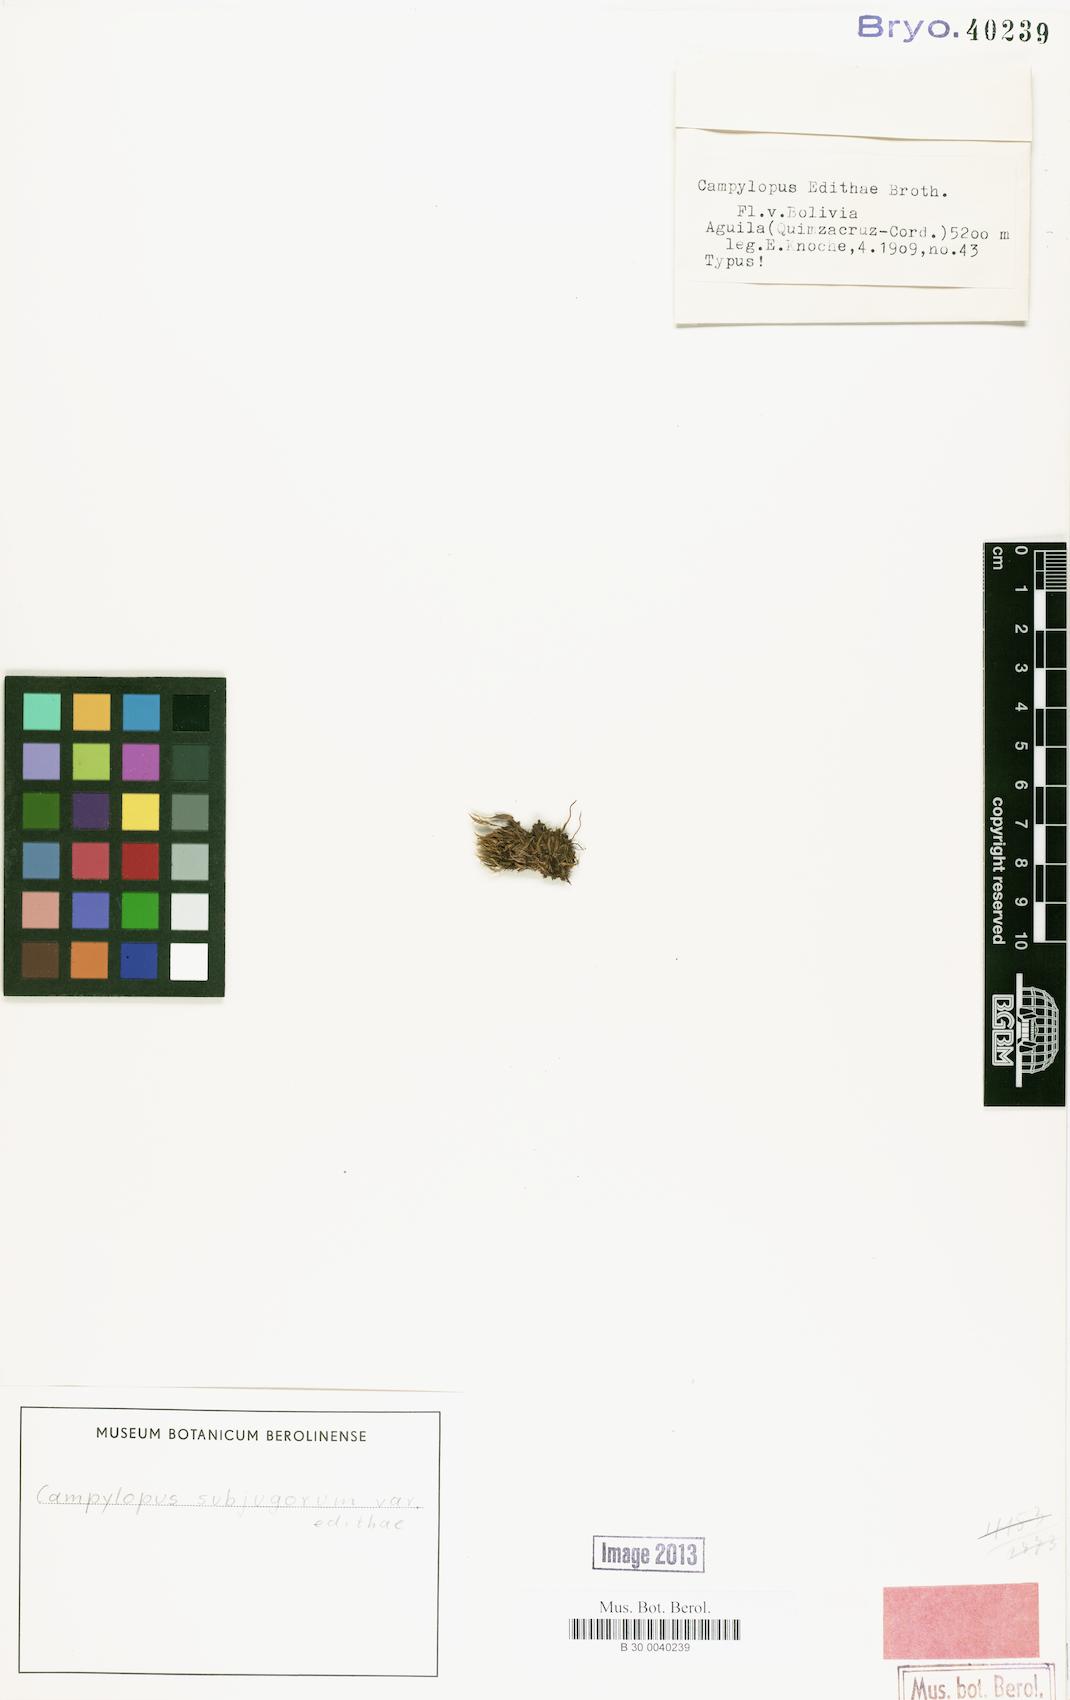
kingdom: Plantae
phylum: Bryophyta
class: Bryopsida
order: Dicranales
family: Leucobryaceae
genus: Campylopus
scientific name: Campylopus edithae
